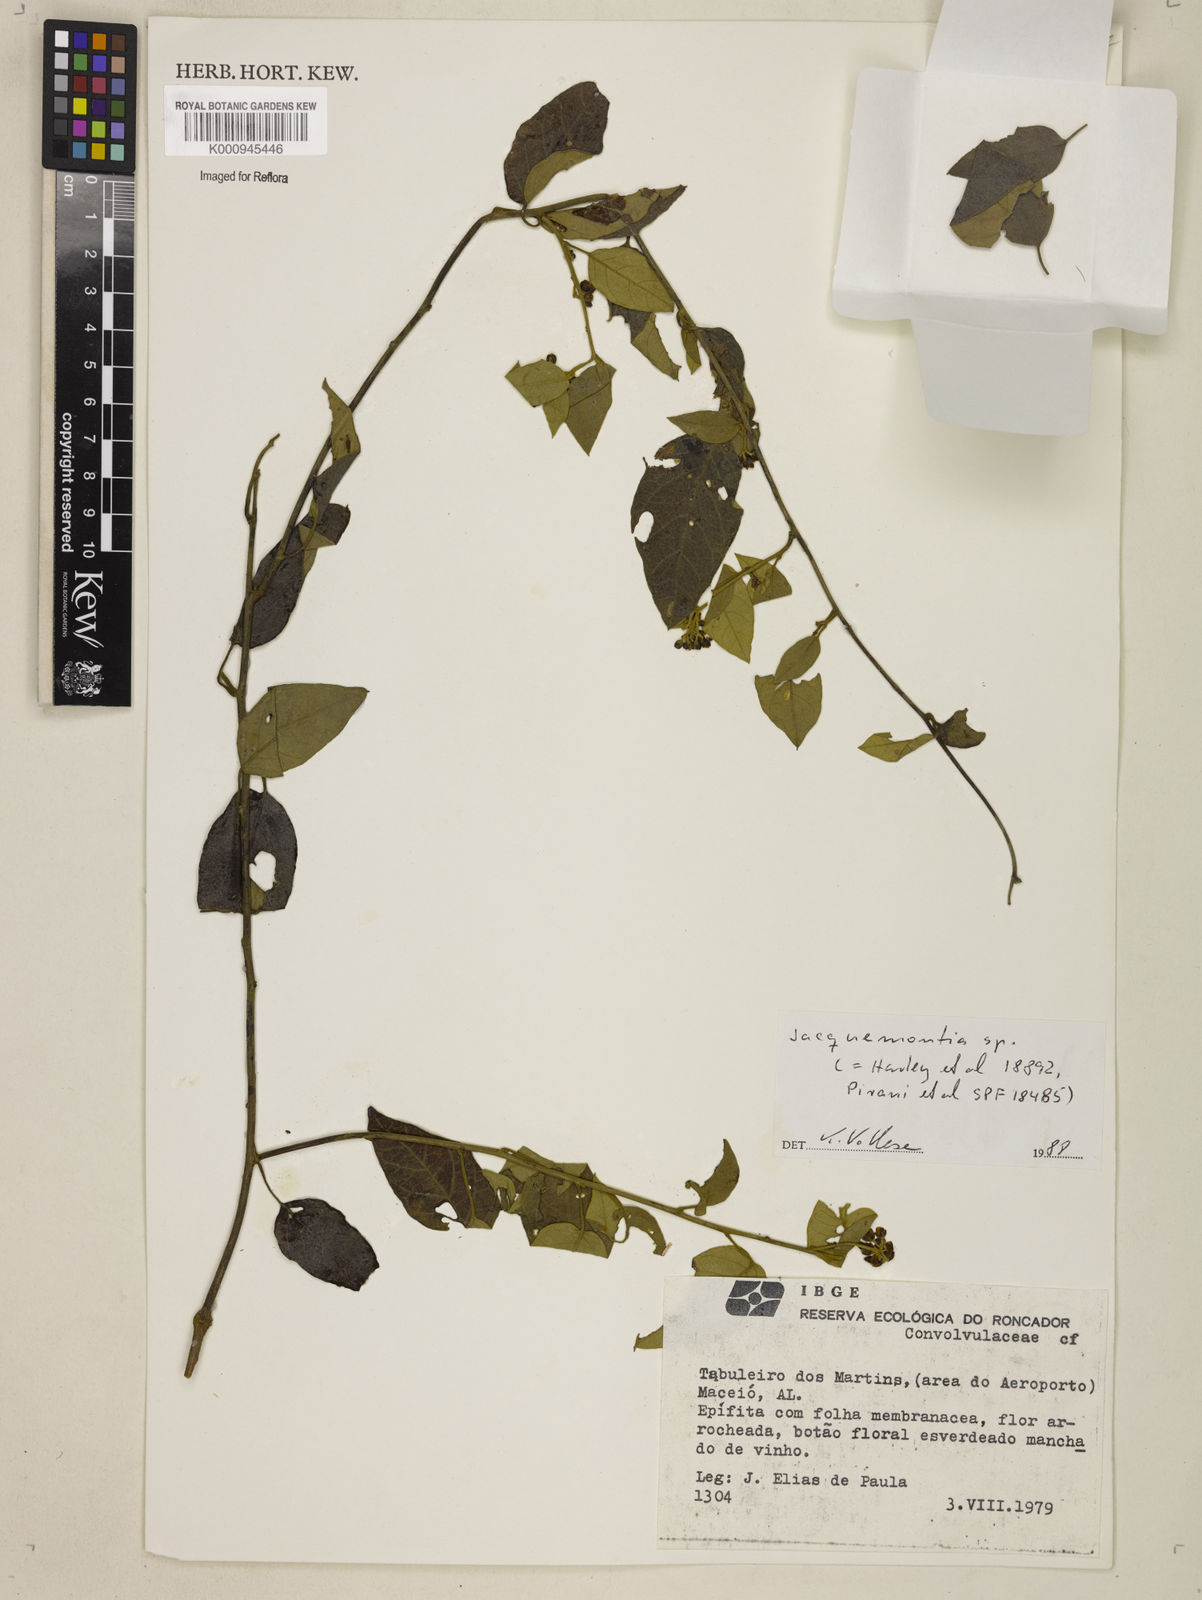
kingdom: Plantae
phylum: Tracheophyta
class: Magnoliopsida
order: Solanales
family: Convolvulaceae
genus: Jacquemontia
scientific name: Jacquemontia
